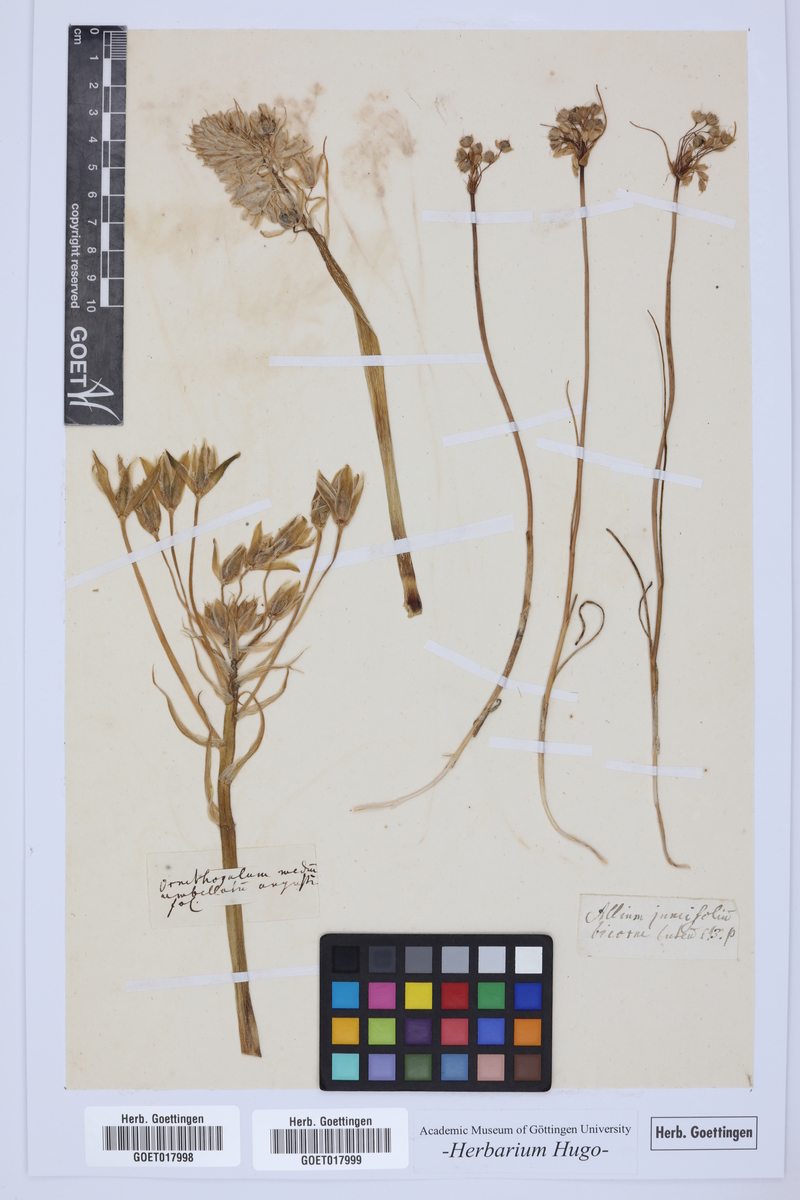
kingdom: Plantae
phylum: Tracheophyta
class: Liliopsida
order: Asparagales
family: Asparagaceae
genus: Ornithogalum
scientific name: Ornithogalum umbellatum
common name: Garden star-of-bethlehem
